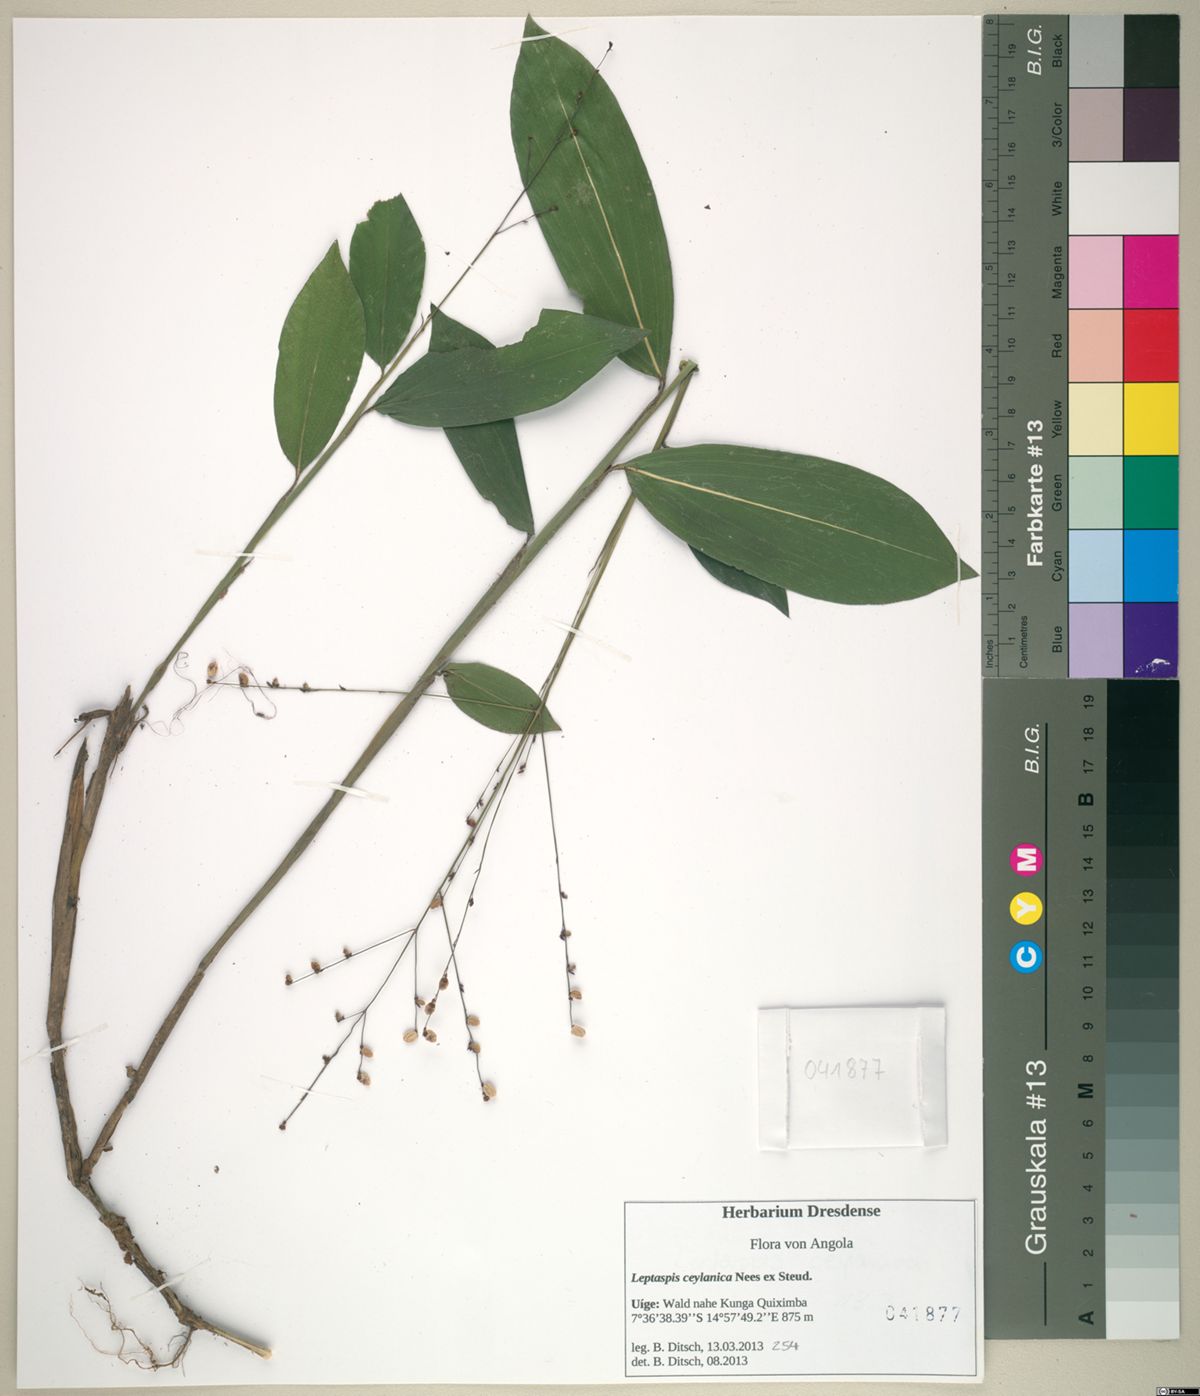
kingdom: Plantae
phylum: Tracheophyta
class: Liliopsida
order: Poales
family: Poaceae
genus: Leptaspis
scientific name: Leptaspis zeylanica
